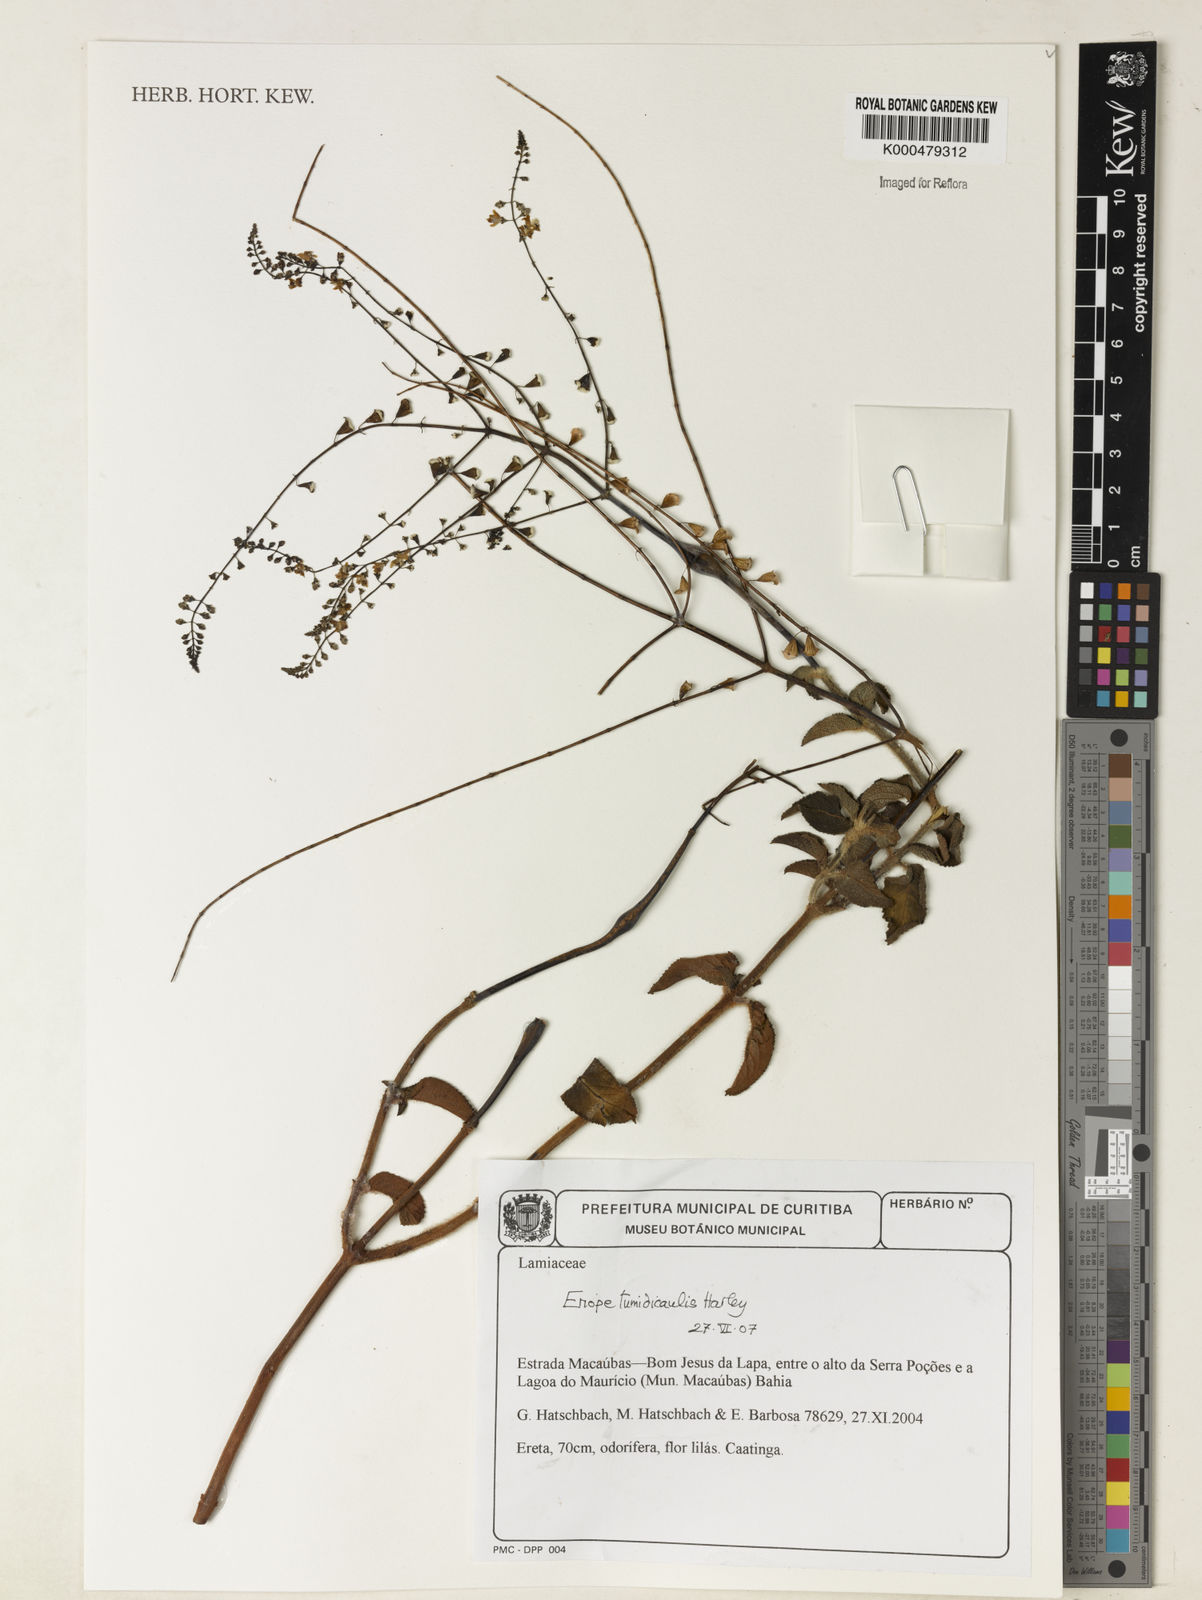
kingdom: Plantae
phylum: Tracheophyta
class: Magnoliopsida
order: Lamiales
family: Lamiaceae
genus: Eriope
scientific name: Eriope tumidicaulis
